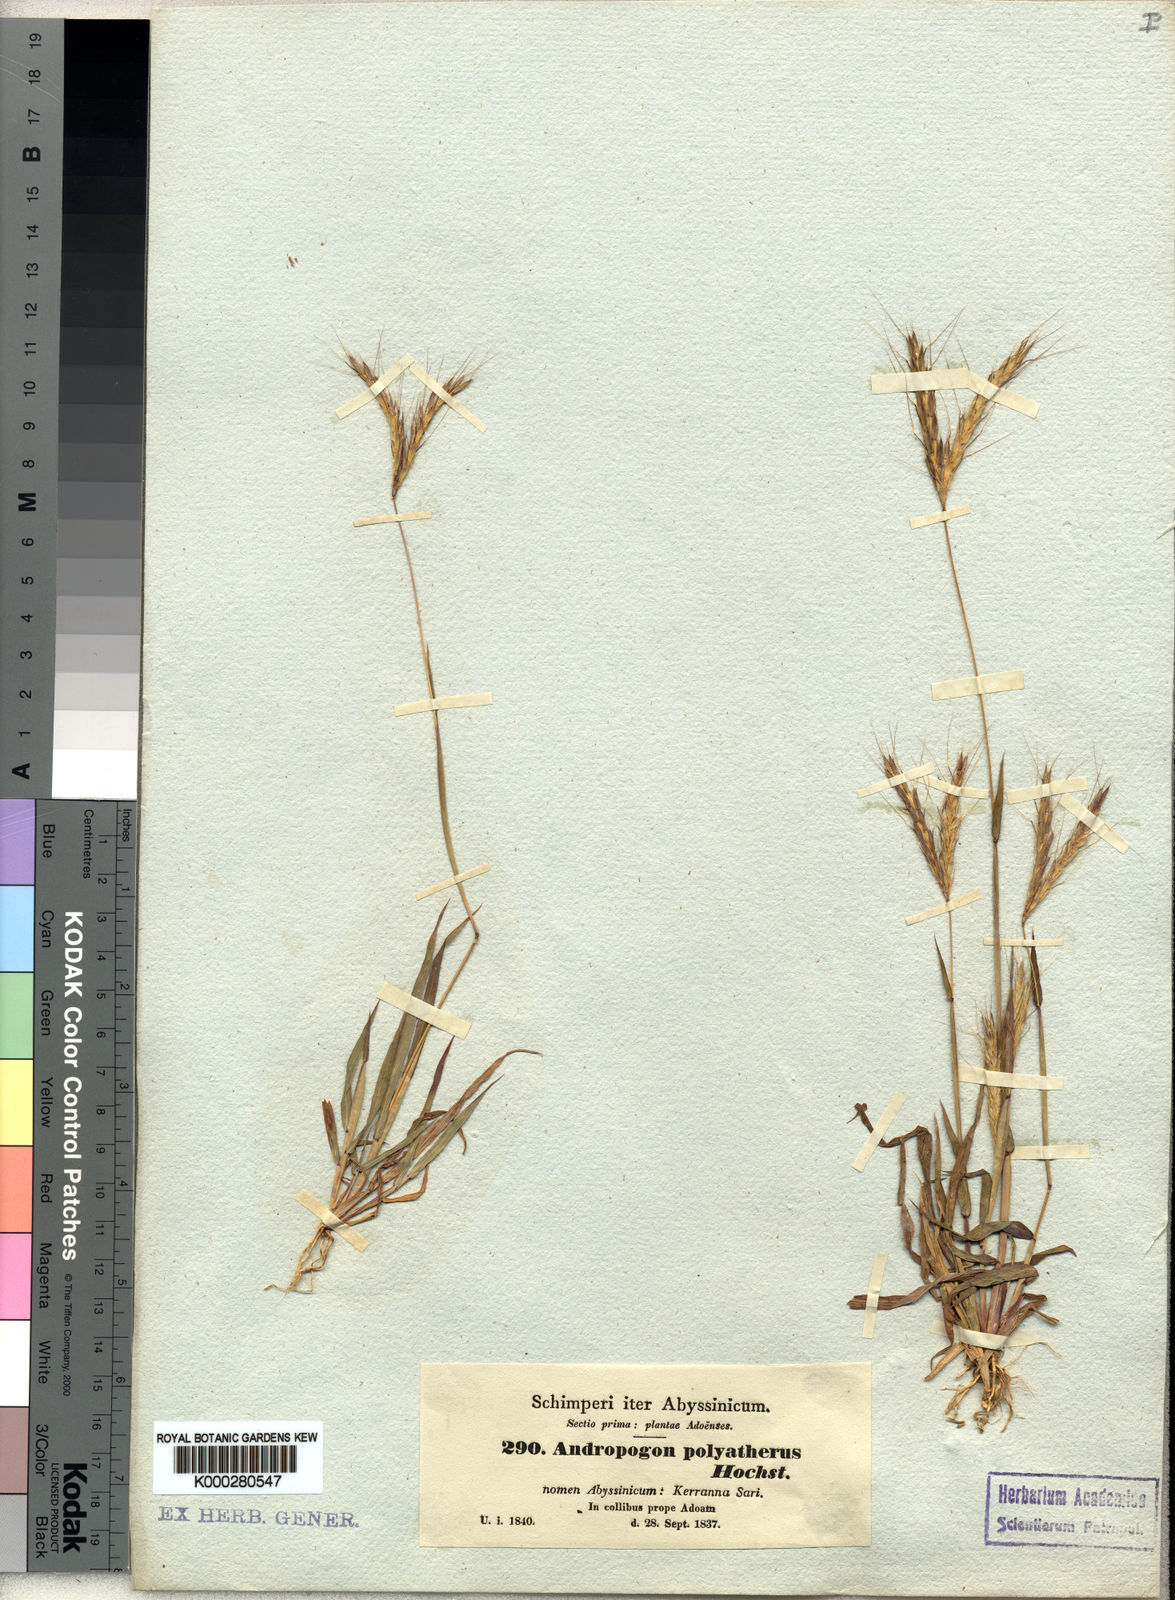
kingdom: Plantae
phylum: Tracheophyta
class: Liliopsida
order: Poales
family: Poaceae
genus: Andropogon
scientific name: Andropogon abyssinicus
